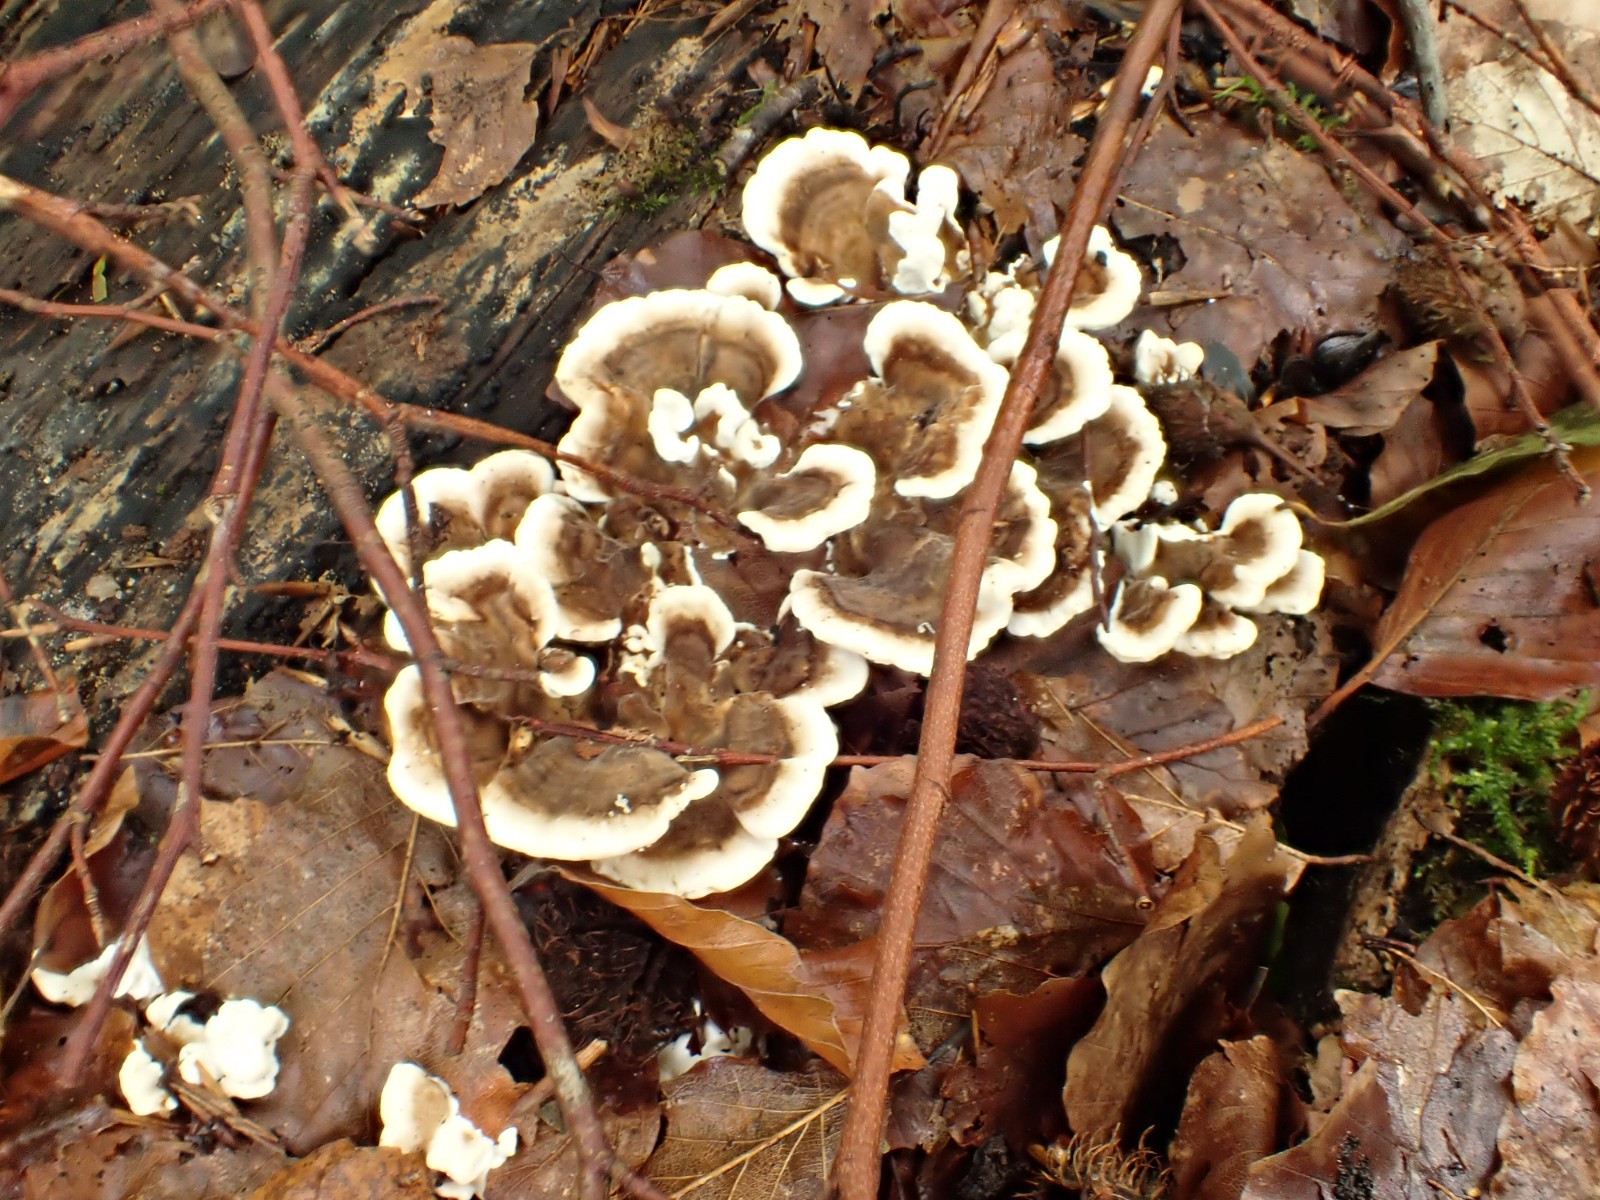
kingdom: Fungi
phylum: Basidiomycota
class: Agaricomycetes
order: Polyporales
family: Polyporaceae
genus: Trametes
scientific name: Trametes versicolor
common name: broget læderporesvamp
